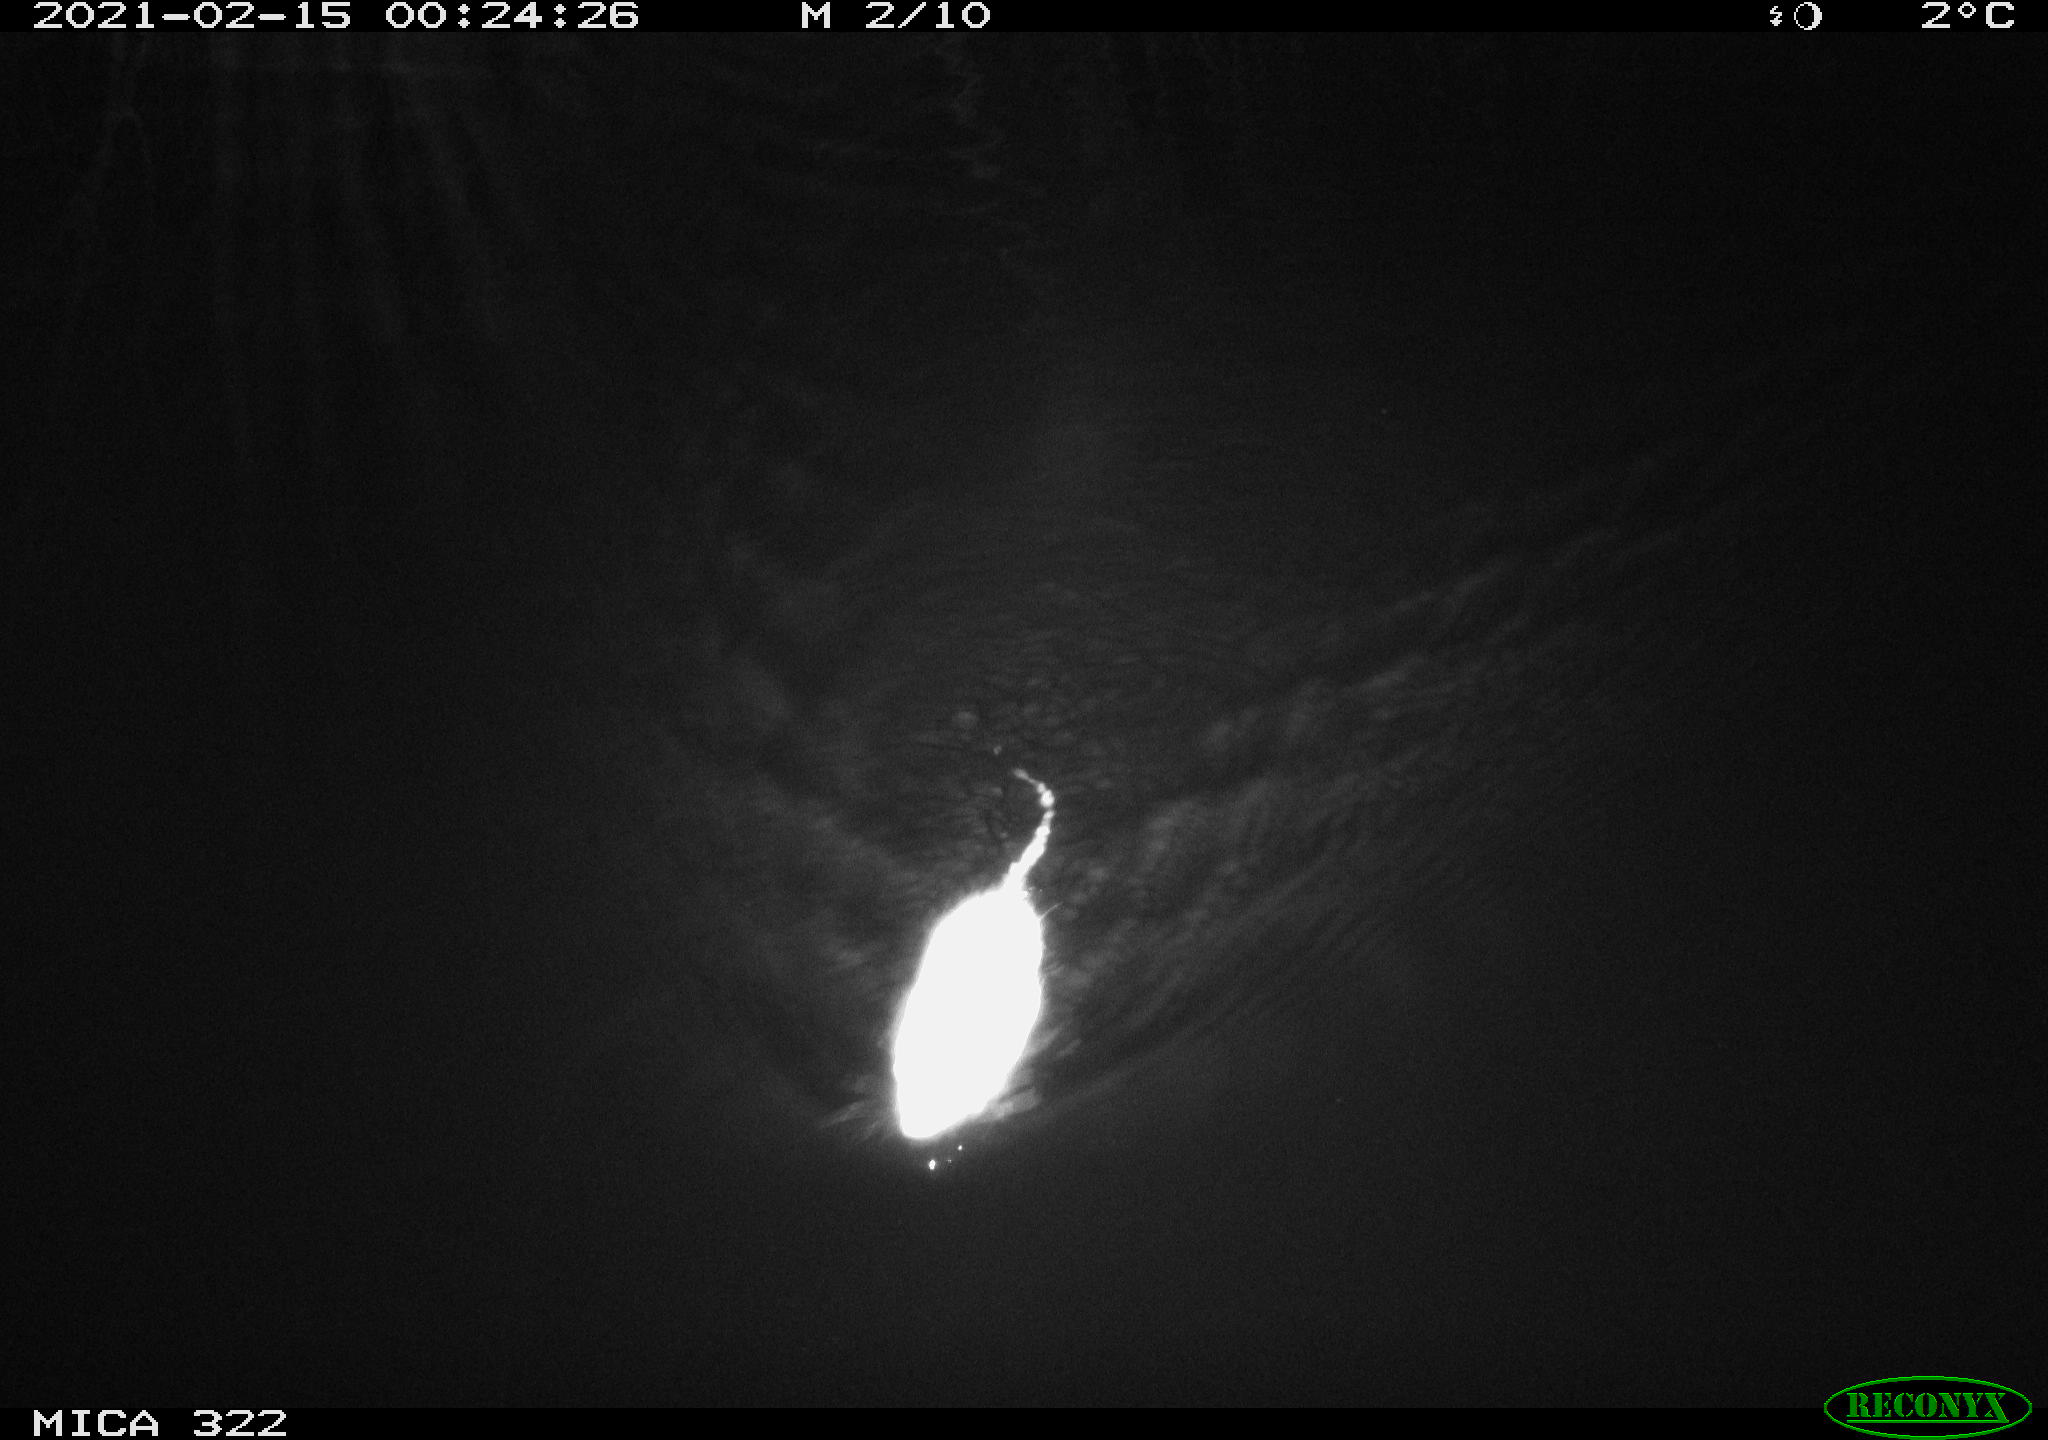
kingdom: Animalia
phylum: Chordata
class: Mammalia
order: Rodentia
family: Cricetidae
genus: Ondatra
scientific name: Ondatra zibethicus
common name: Muskrat
